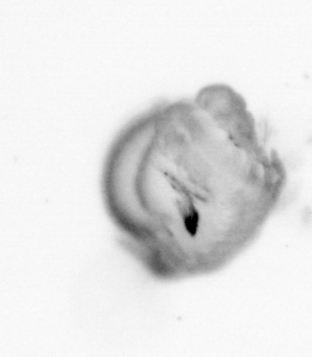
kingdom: Animalia
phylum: Annelida
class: Polychaeta
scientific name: Polychaeta
